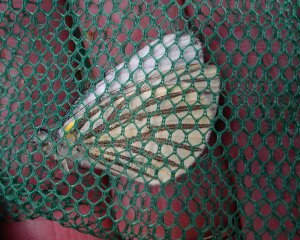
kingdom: Animalia
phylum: Arthropoda
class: Insecta
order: Lepidoptera
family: Pieridae
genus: Pieris
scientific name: Pieris oleracea
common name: Mustard White
